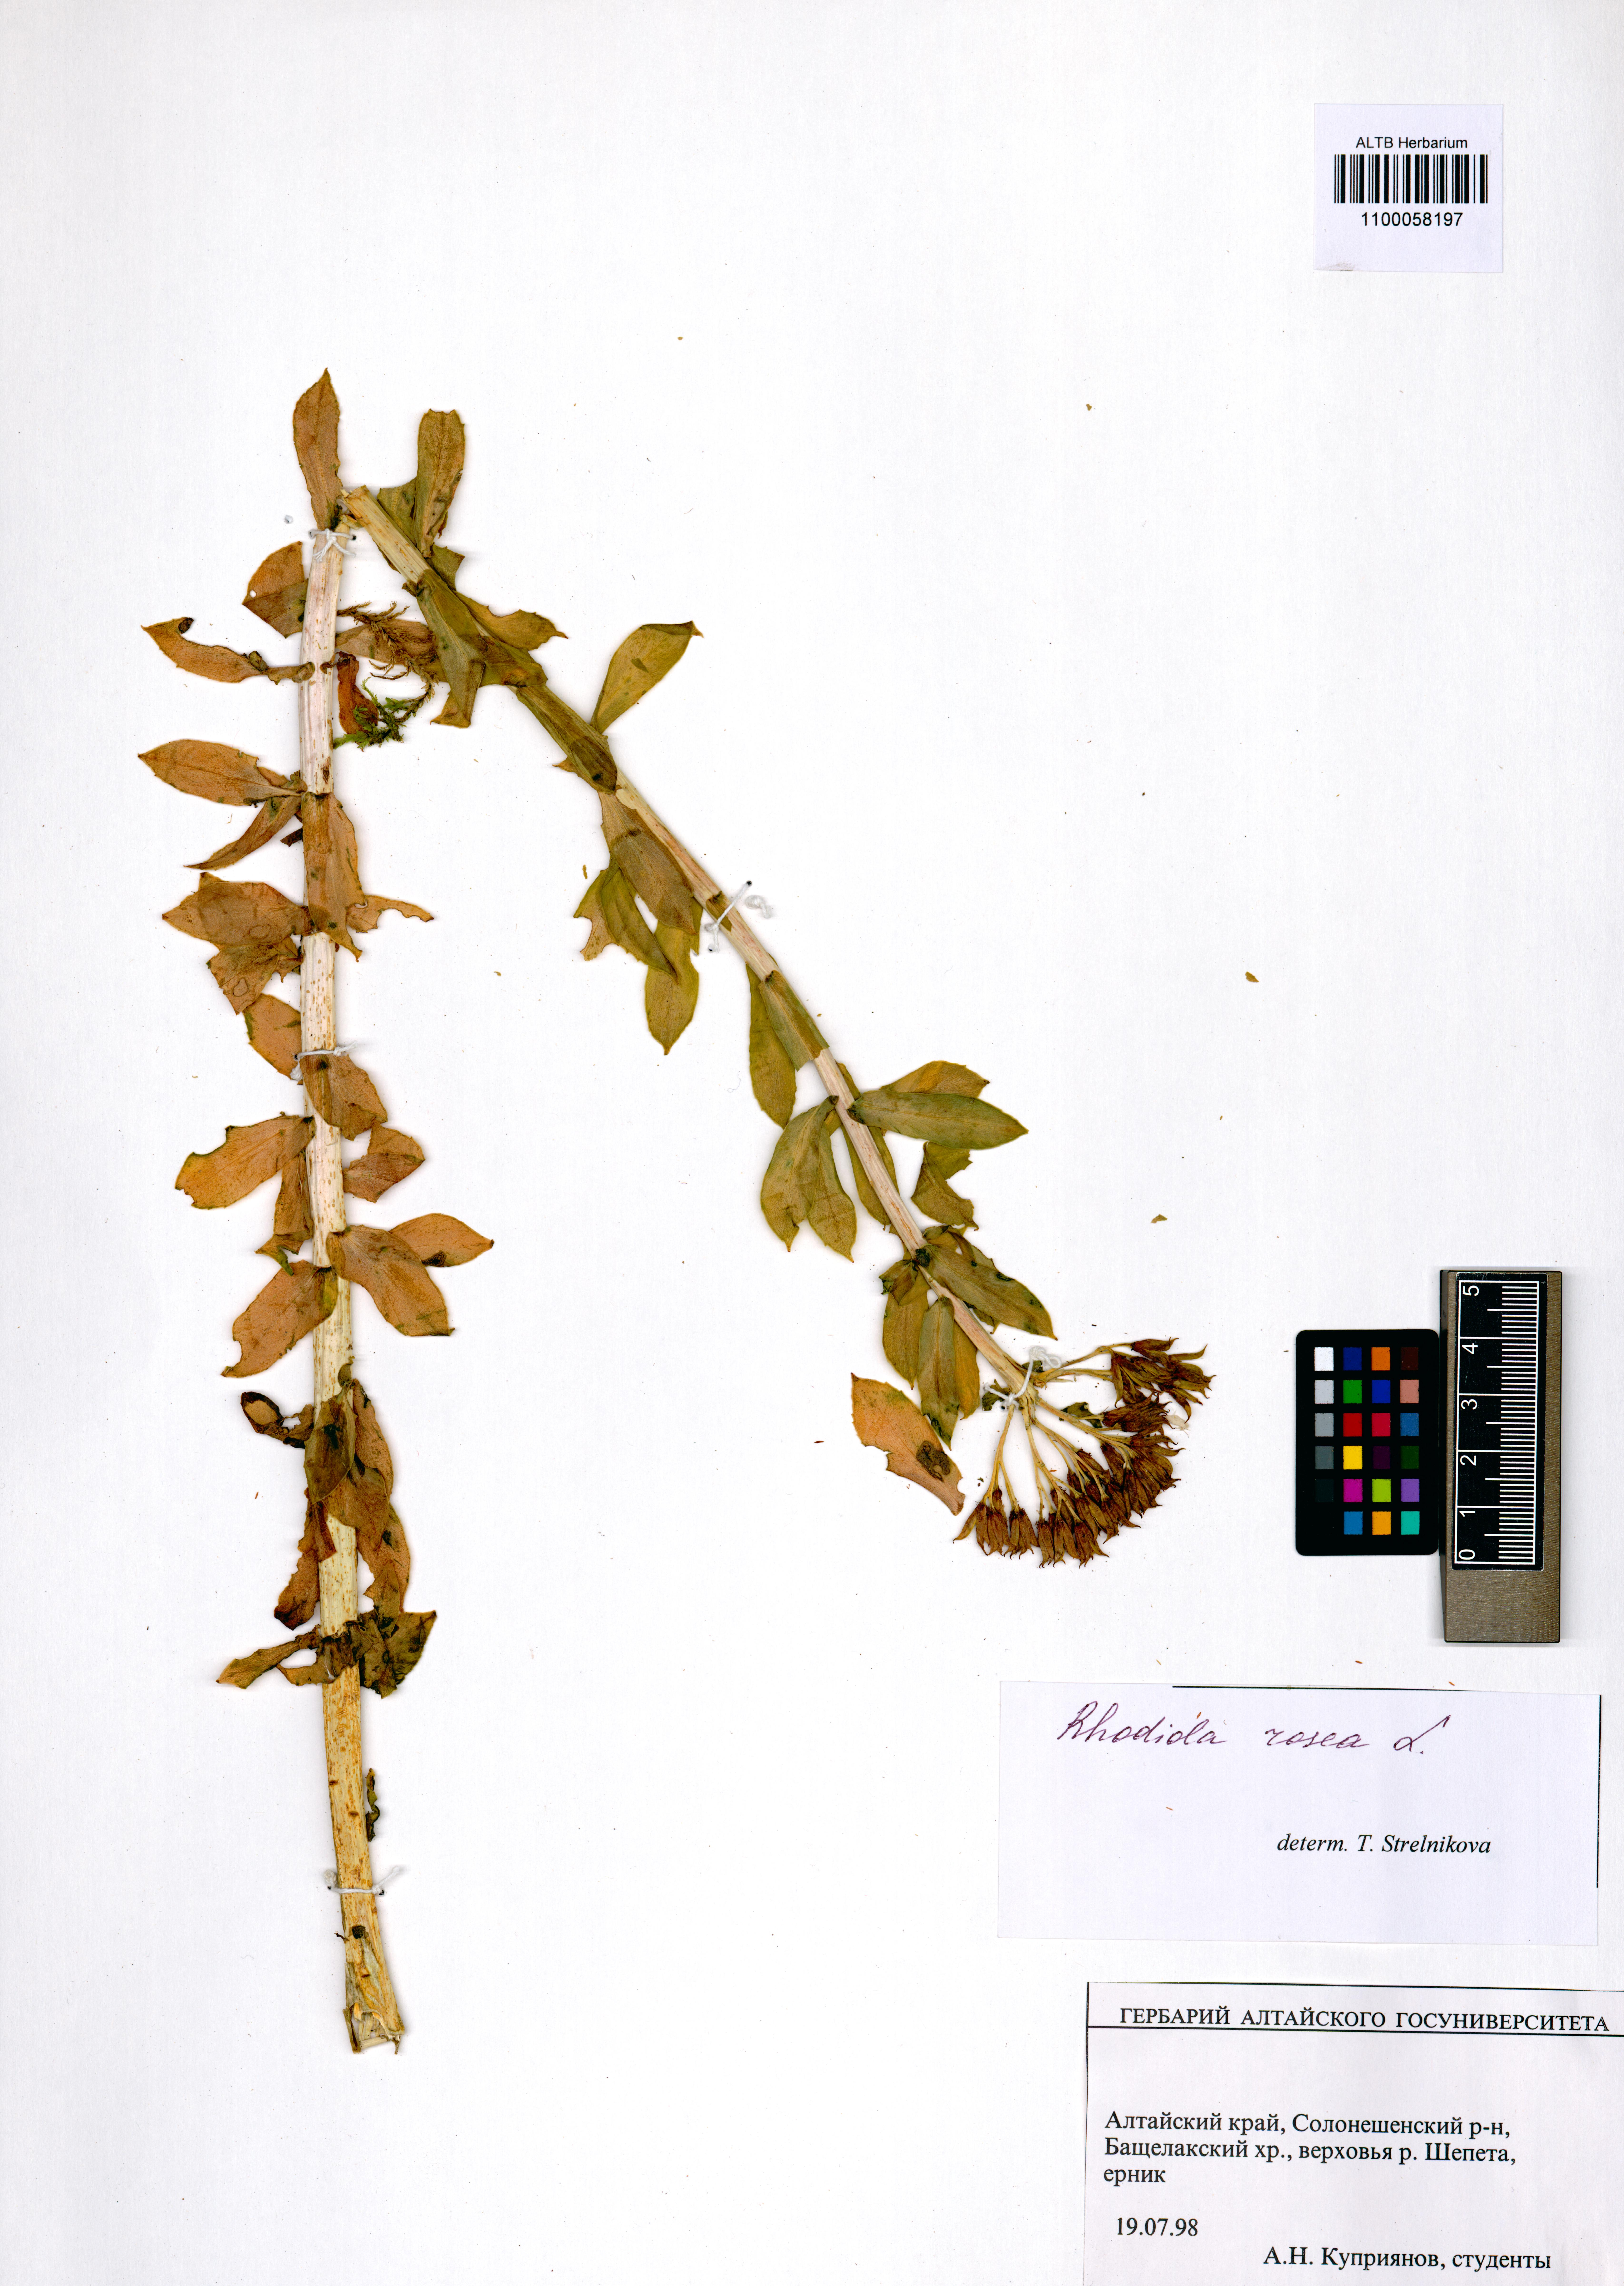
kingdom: Plantae
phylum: Tracheophyta
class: Magnoliopsida
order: Saxifragales
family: Crassulaceae
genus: Rhodiola
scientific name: Rhodiola rosea
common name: Roseroot
